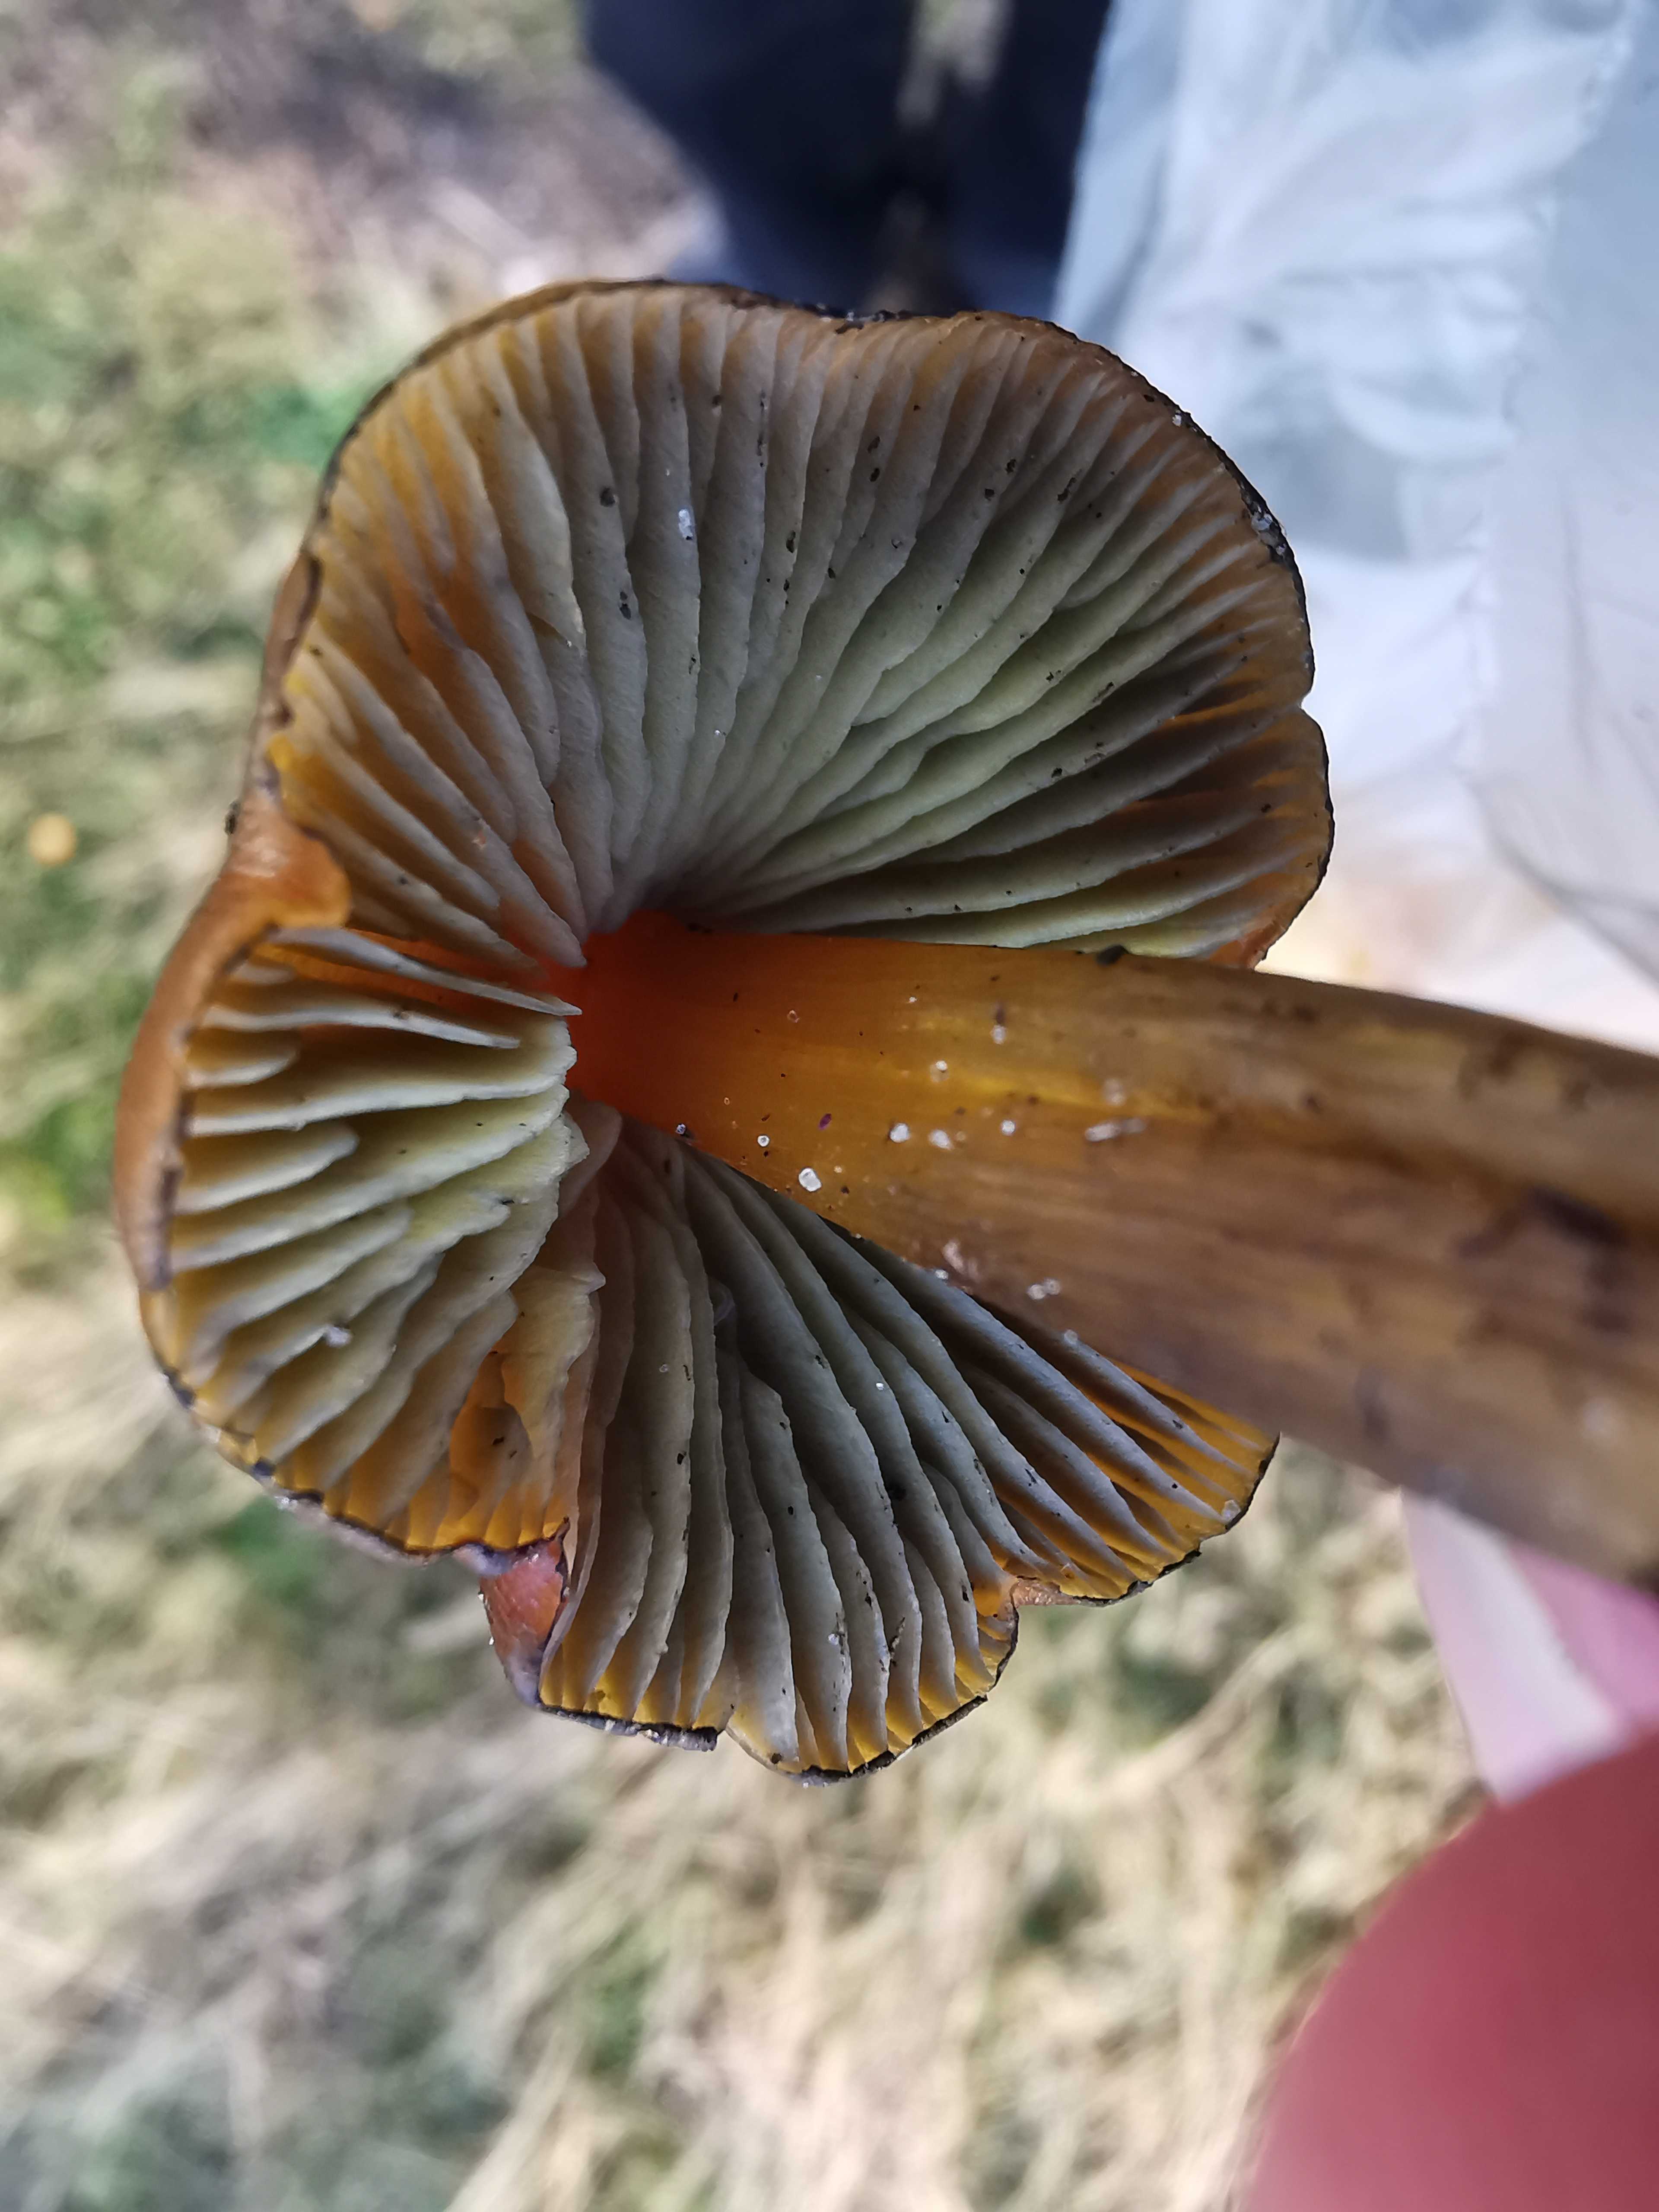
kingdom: Fungi
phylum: Basidiomycota
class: Agaricomycetes
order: Agaricales
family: Hygrophoraceae
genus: Hygrocybe
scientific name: Hygrocybe conica
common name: kegle-vokshat
